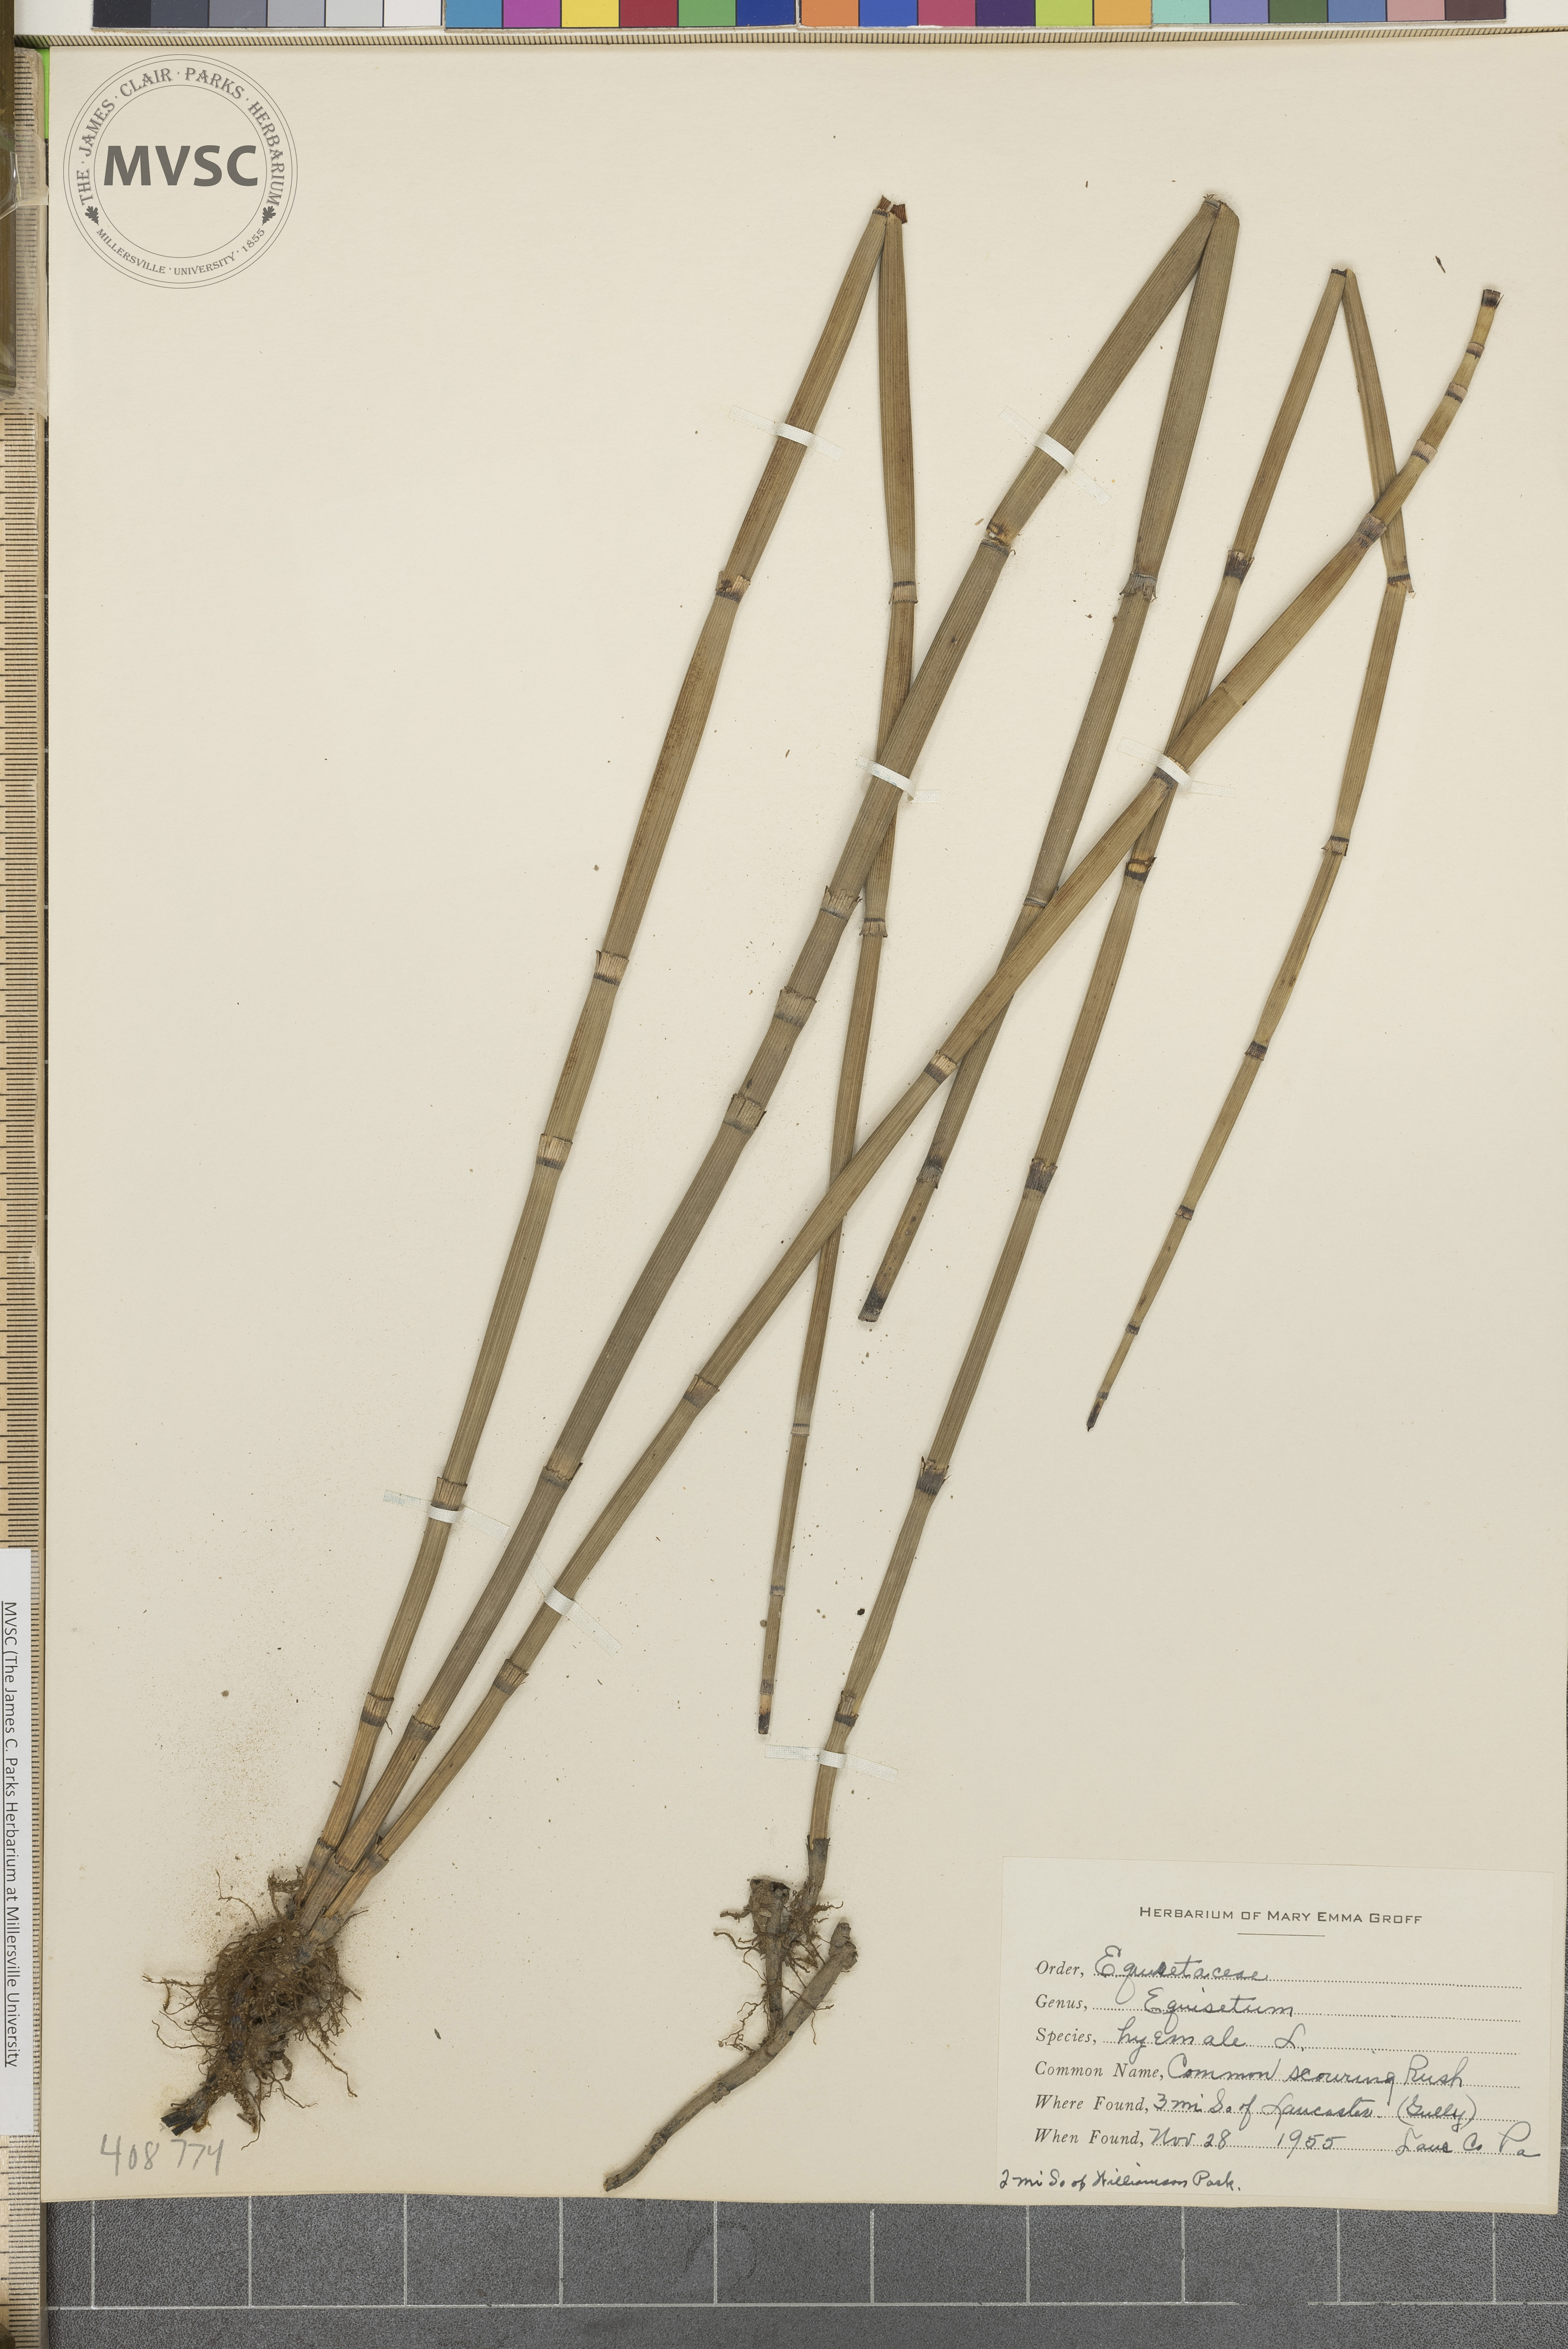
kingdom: Plantae
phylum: Tracheophyta
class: Polypodiopsida
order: Equisetales
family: Equisetaceae
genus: Equisetum
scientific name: Equisetum hyemale
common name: Rough horsetail
